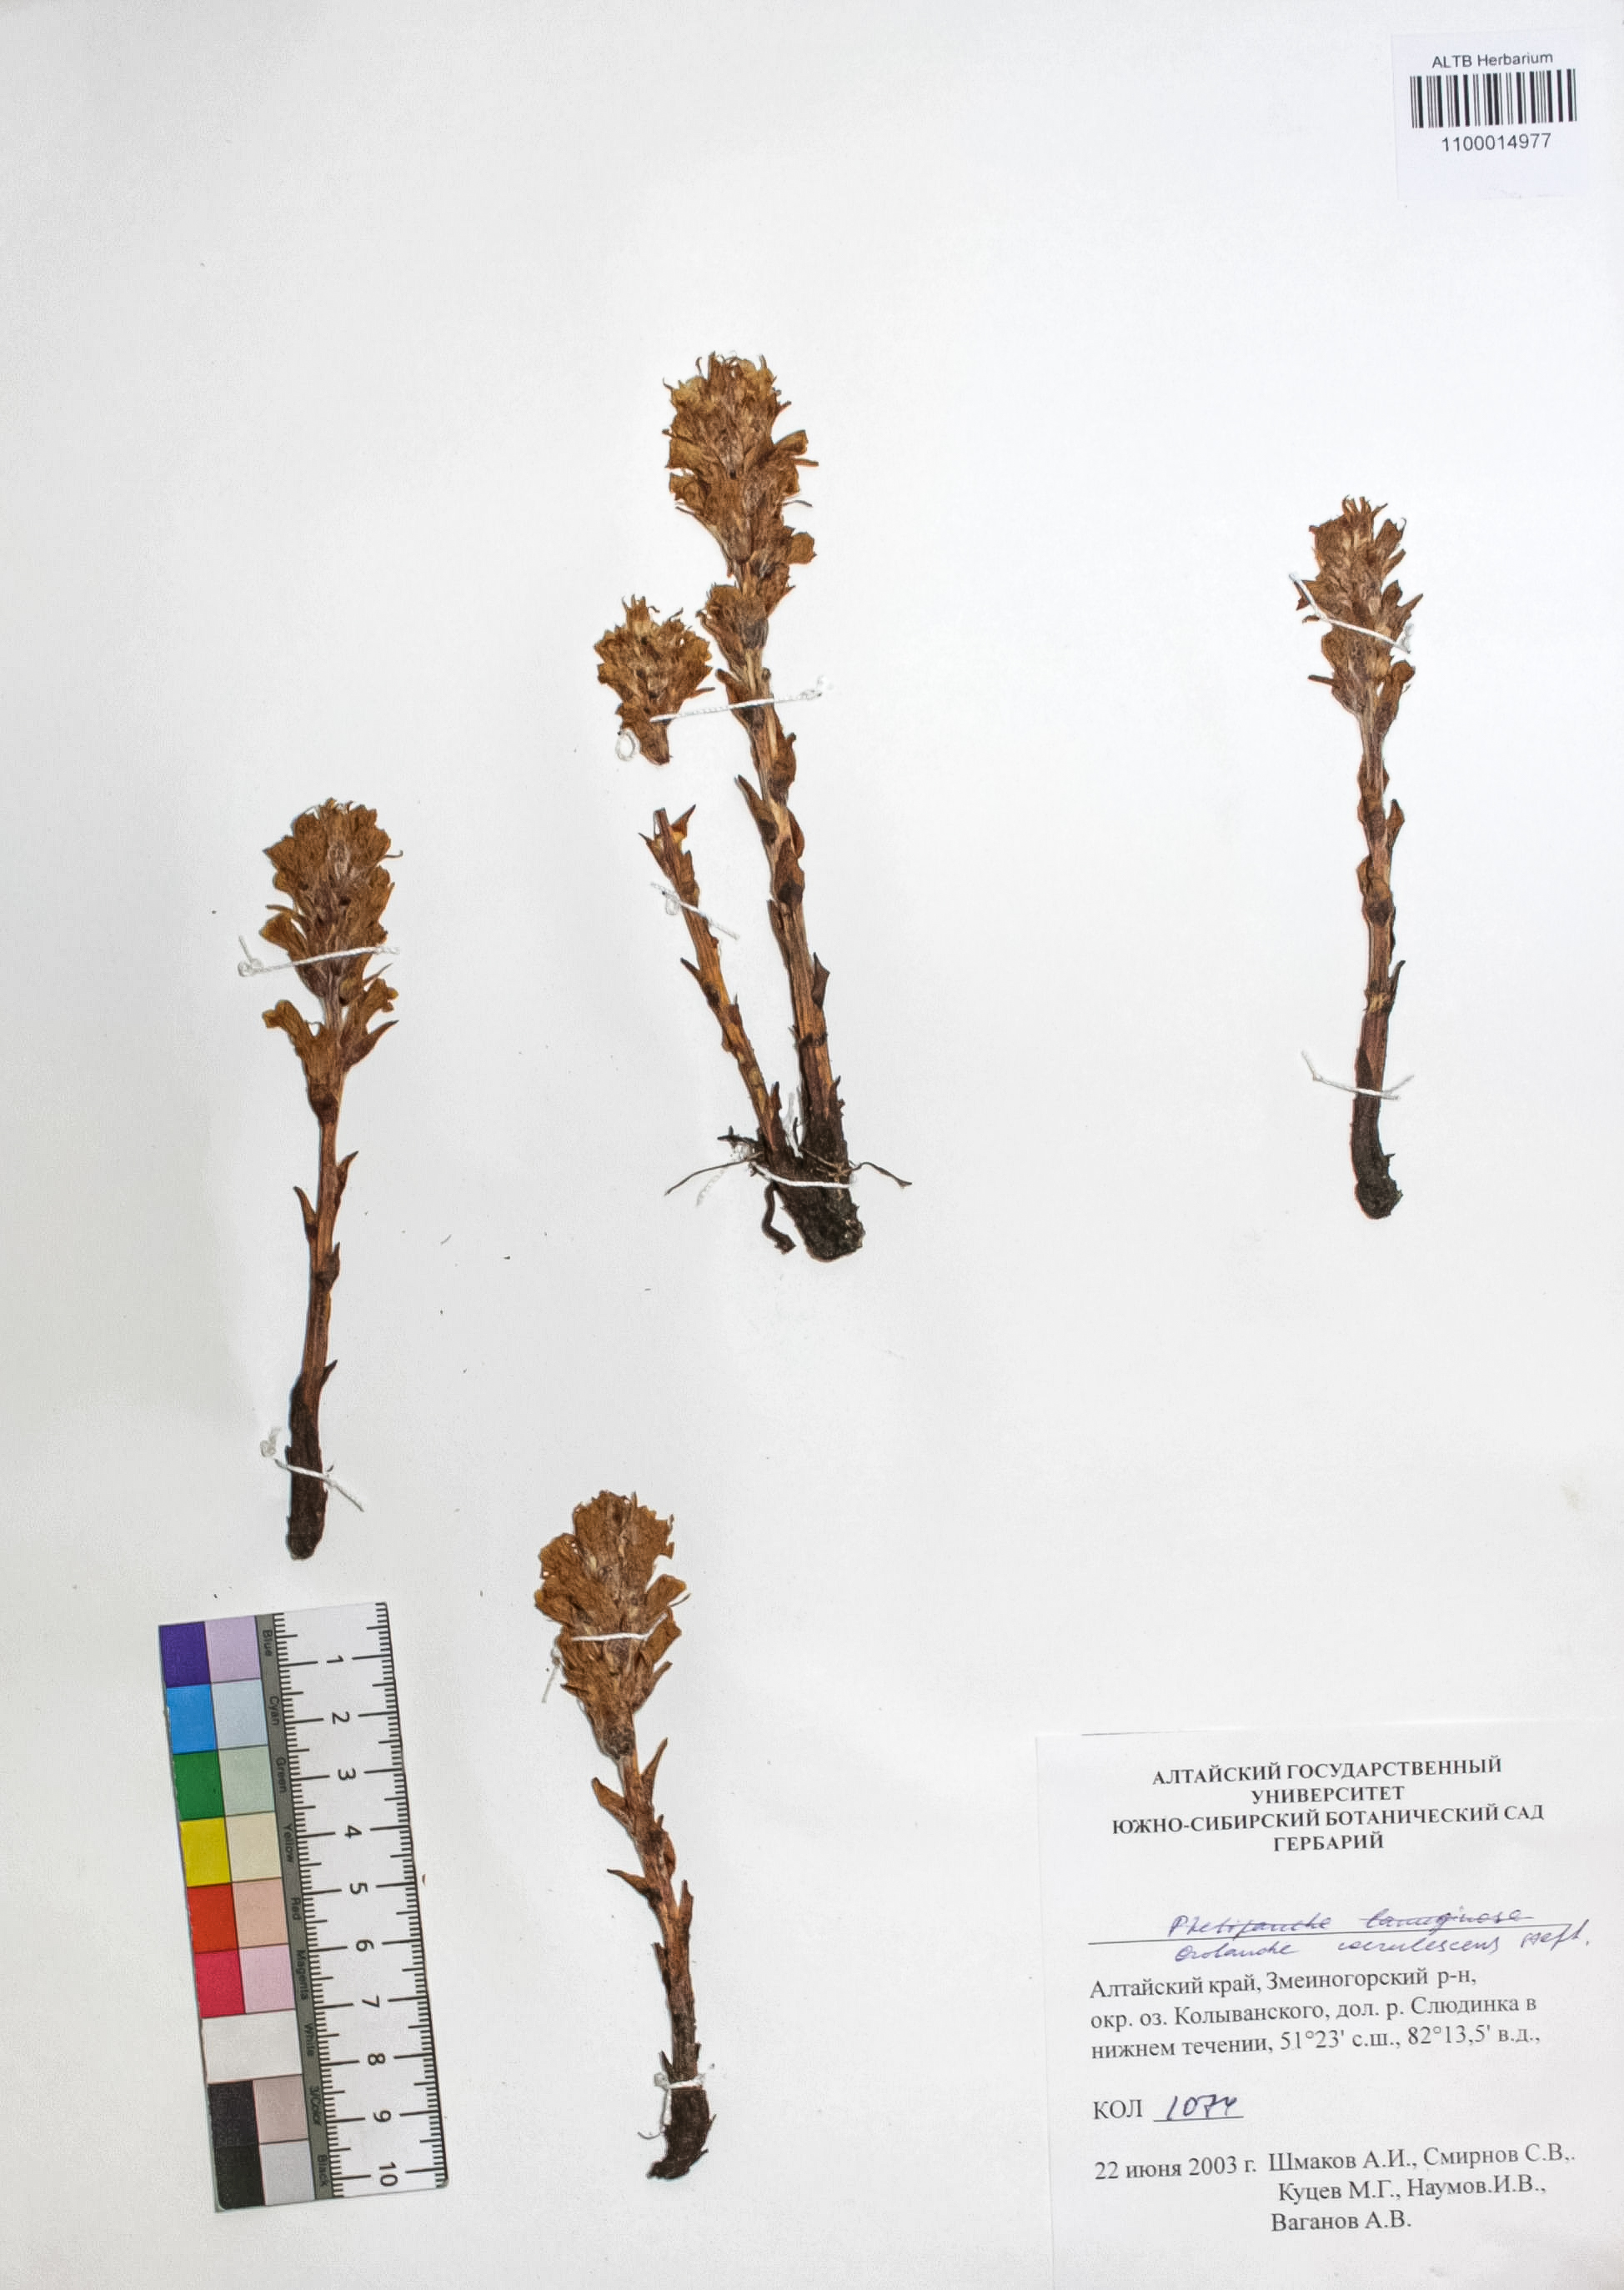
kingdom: Plantae
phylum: Tracheophyta
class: Magnoliopsida
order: Lamiales
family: Orobanchaceae
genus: Orobanche
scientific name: Orobanche coerulescens
